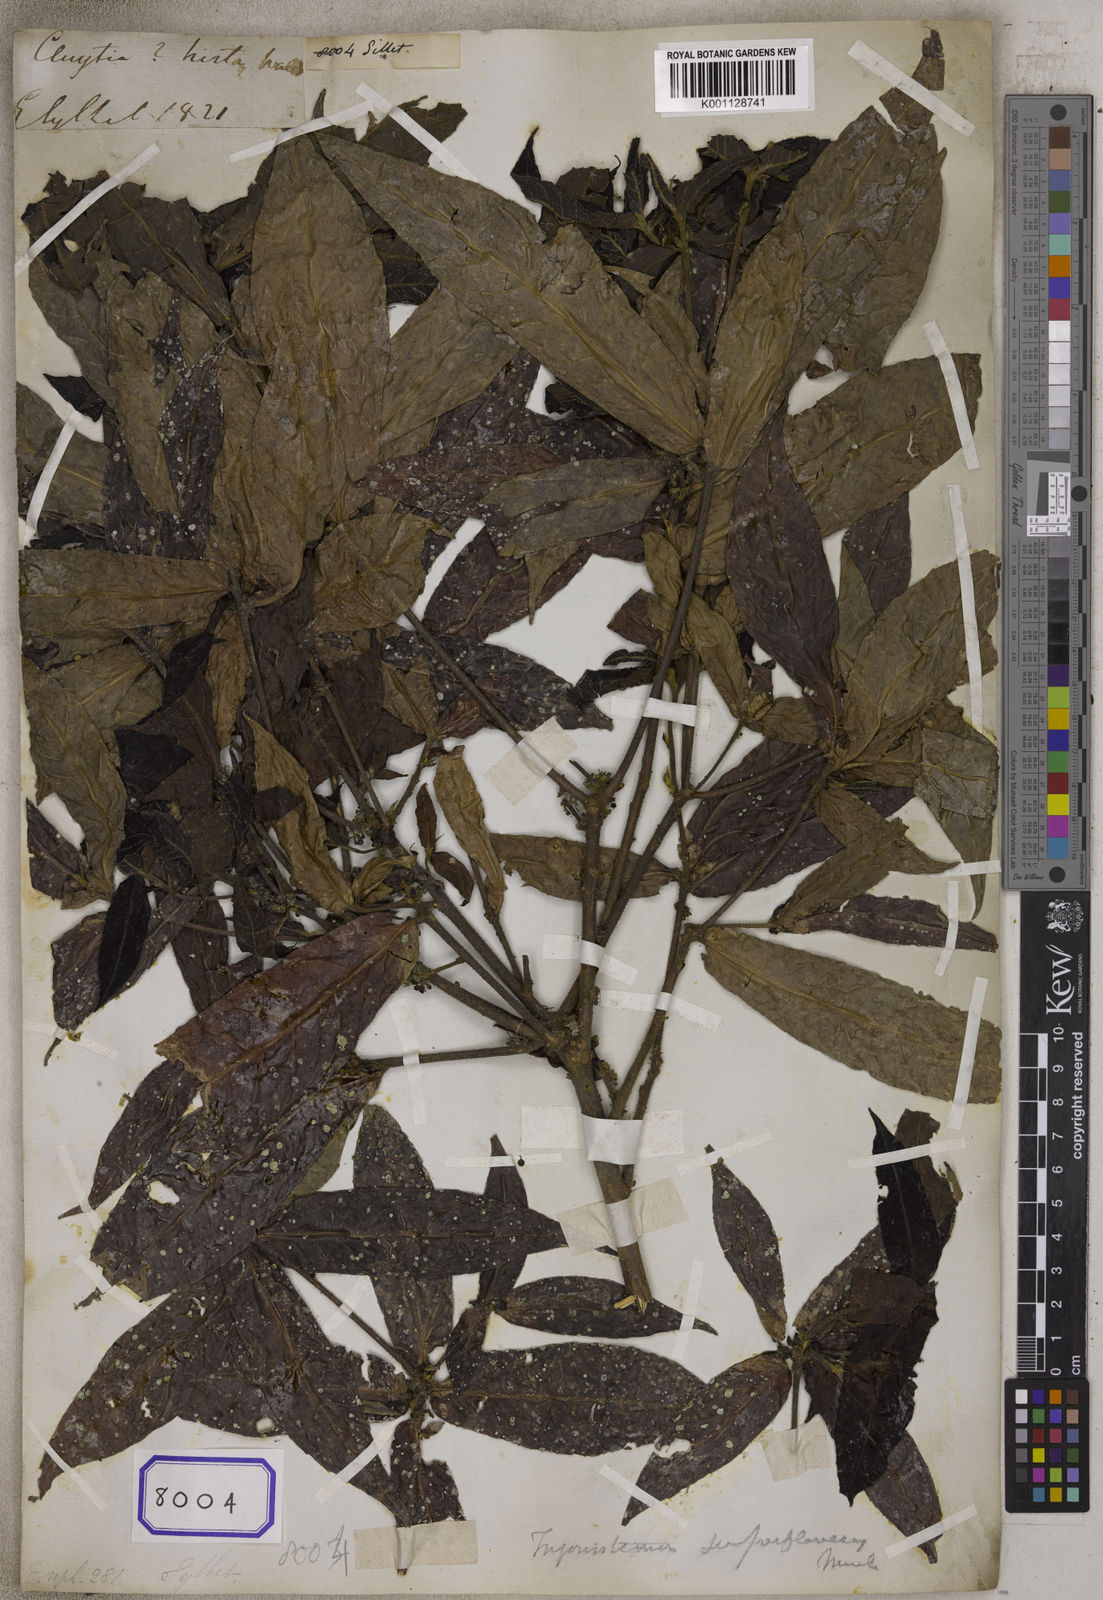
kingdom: Plantae
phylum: Tracheophyta
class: Magnoliopsida
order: Malpighiales
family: Euphorbiaceae
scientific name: Euphorbiaceae
